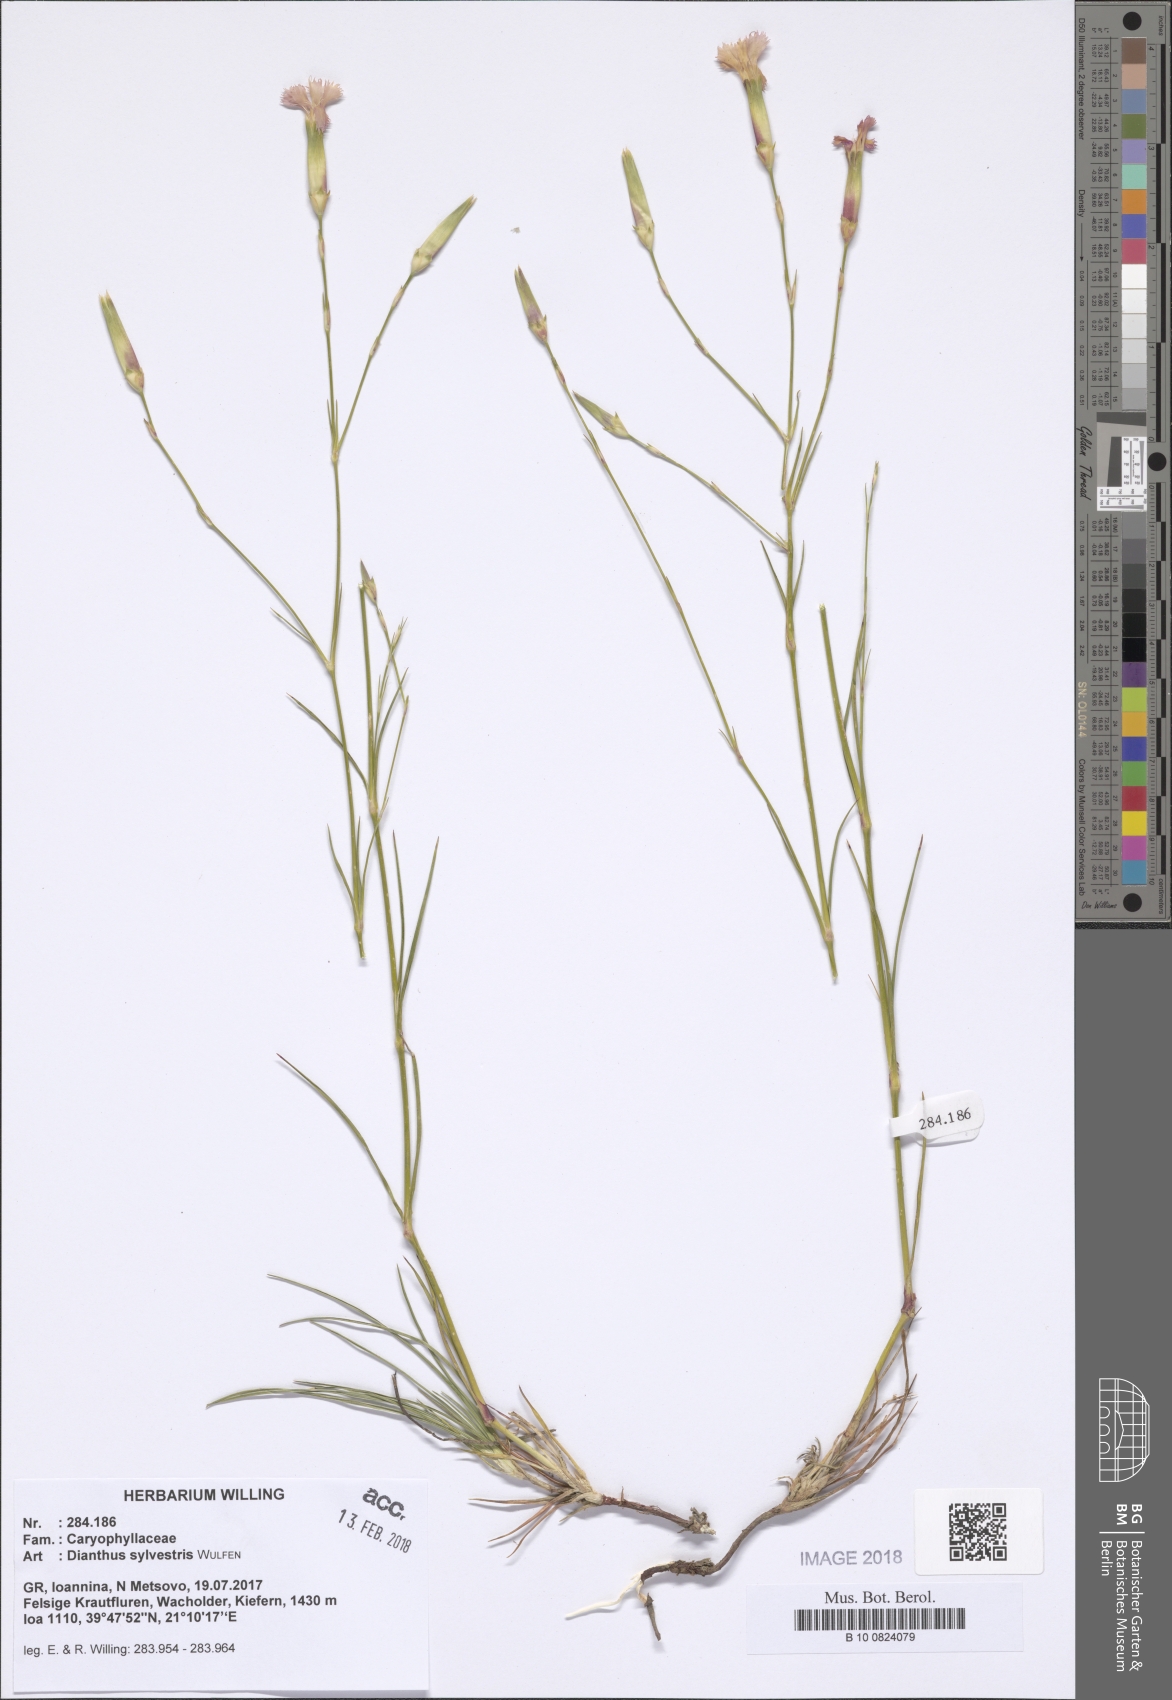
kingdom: Plantae
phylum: Tracheophyta
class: Magnoliopsida
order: Caryophyllales
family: Caryophyllaceae
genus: Dianthus
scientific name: Dianthus sylvestris
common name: Wood pink
